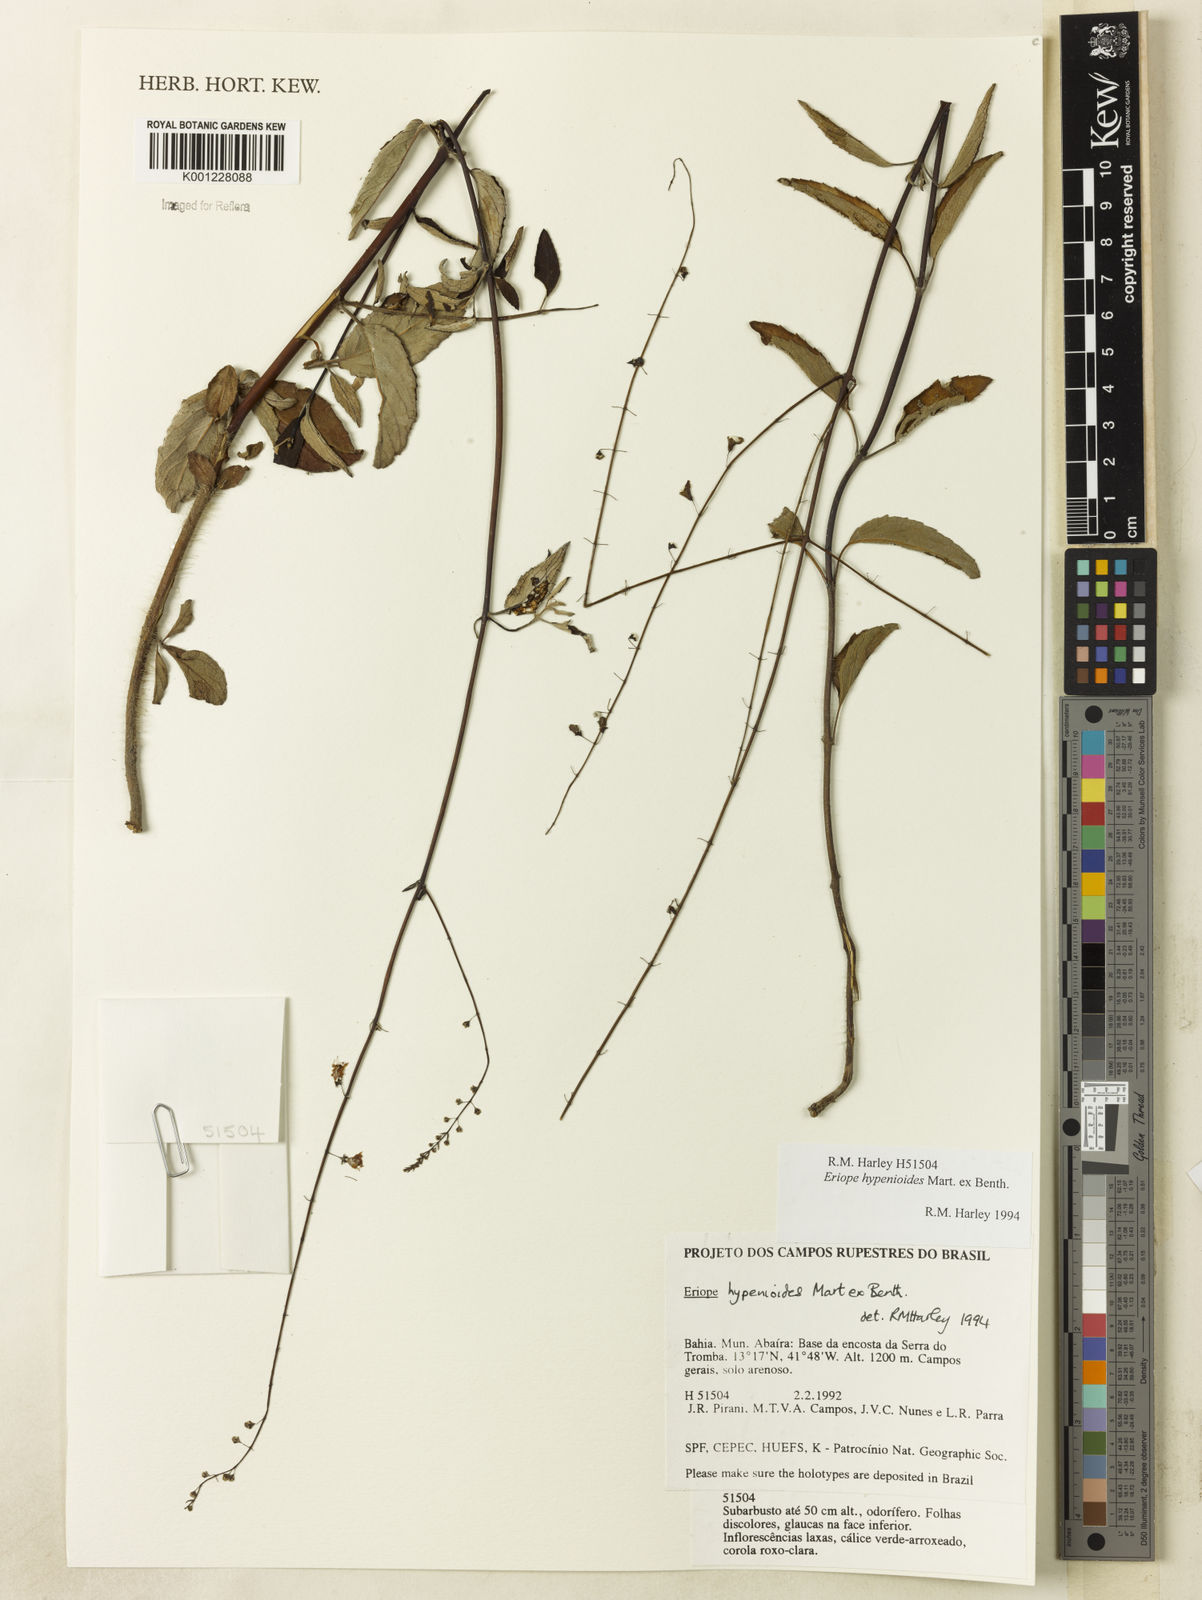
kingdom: Plantae
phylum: Tracheophyta
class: Magnoliopsida
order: Lamiales
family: Lamiaceae
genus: Eriope
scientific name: Eriope hypenioides
